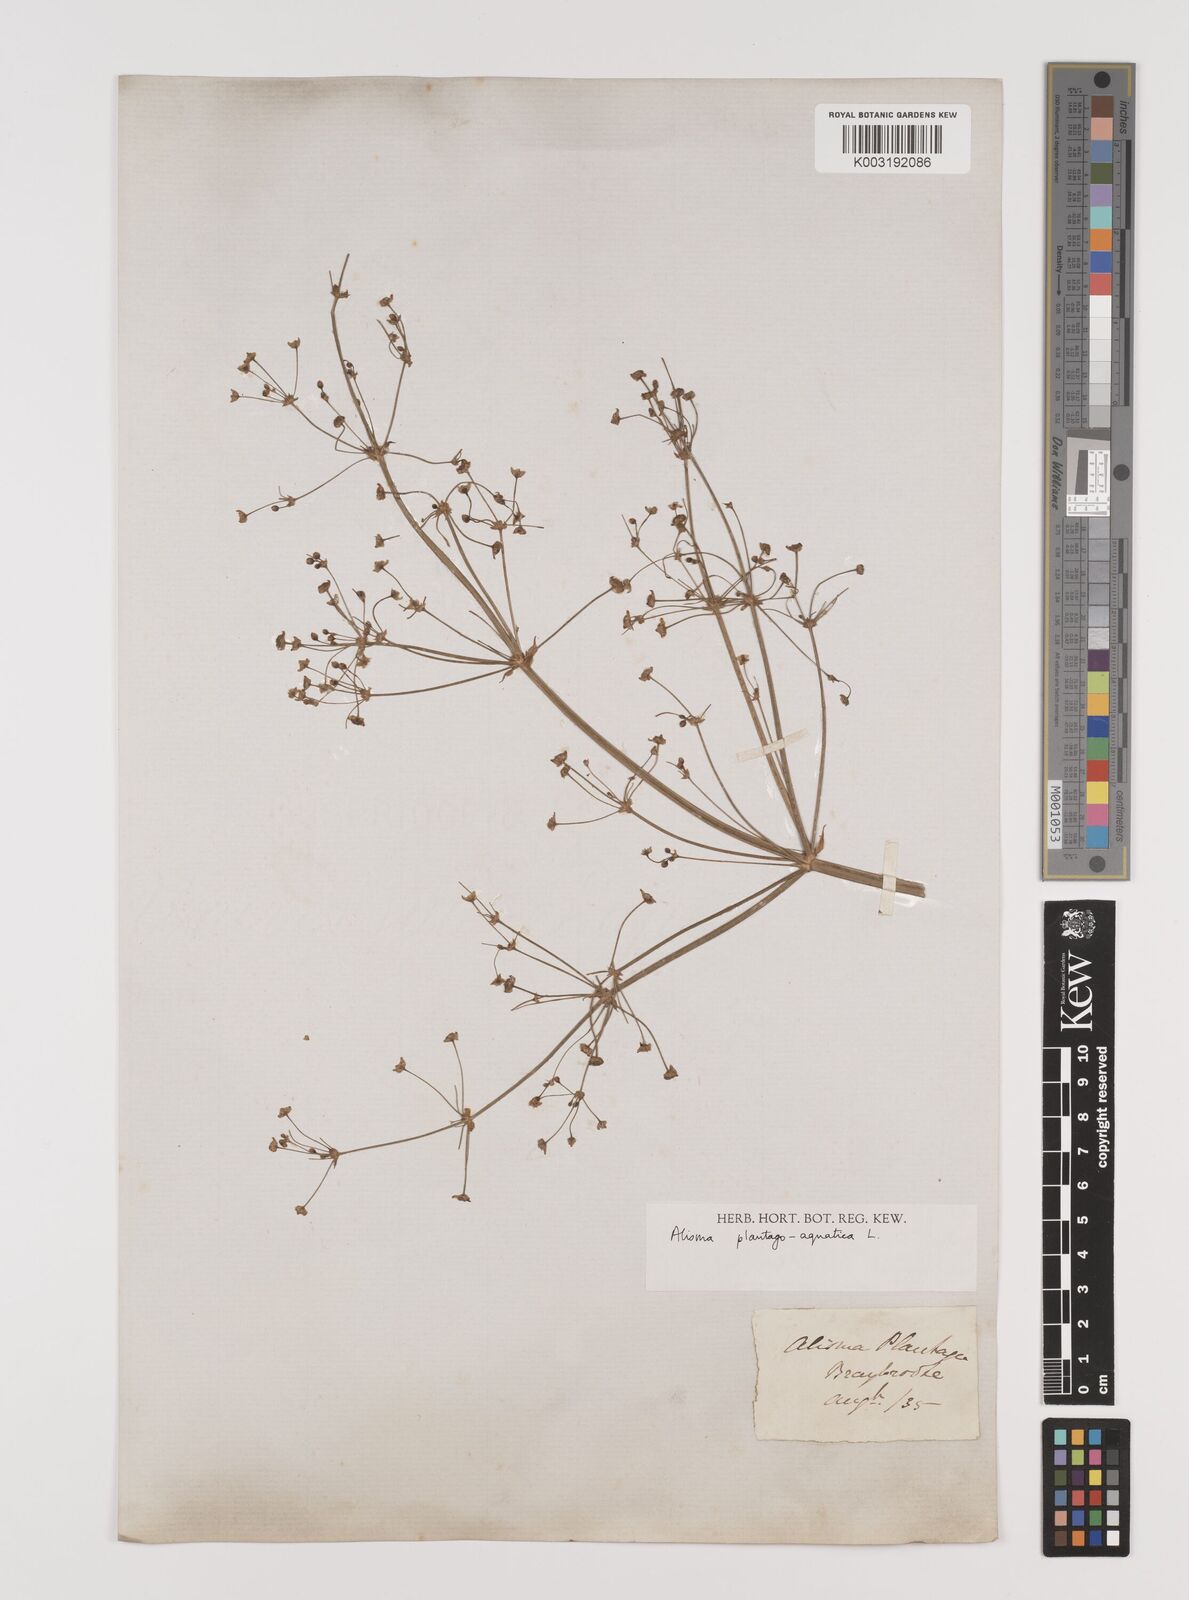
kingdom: Plantae
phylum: Tracheophyta
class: Liliopsida
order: Alismatales
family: Alismataceae
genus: Alisma
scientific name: Alisma plantago-aquatica
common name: Water-plantain
